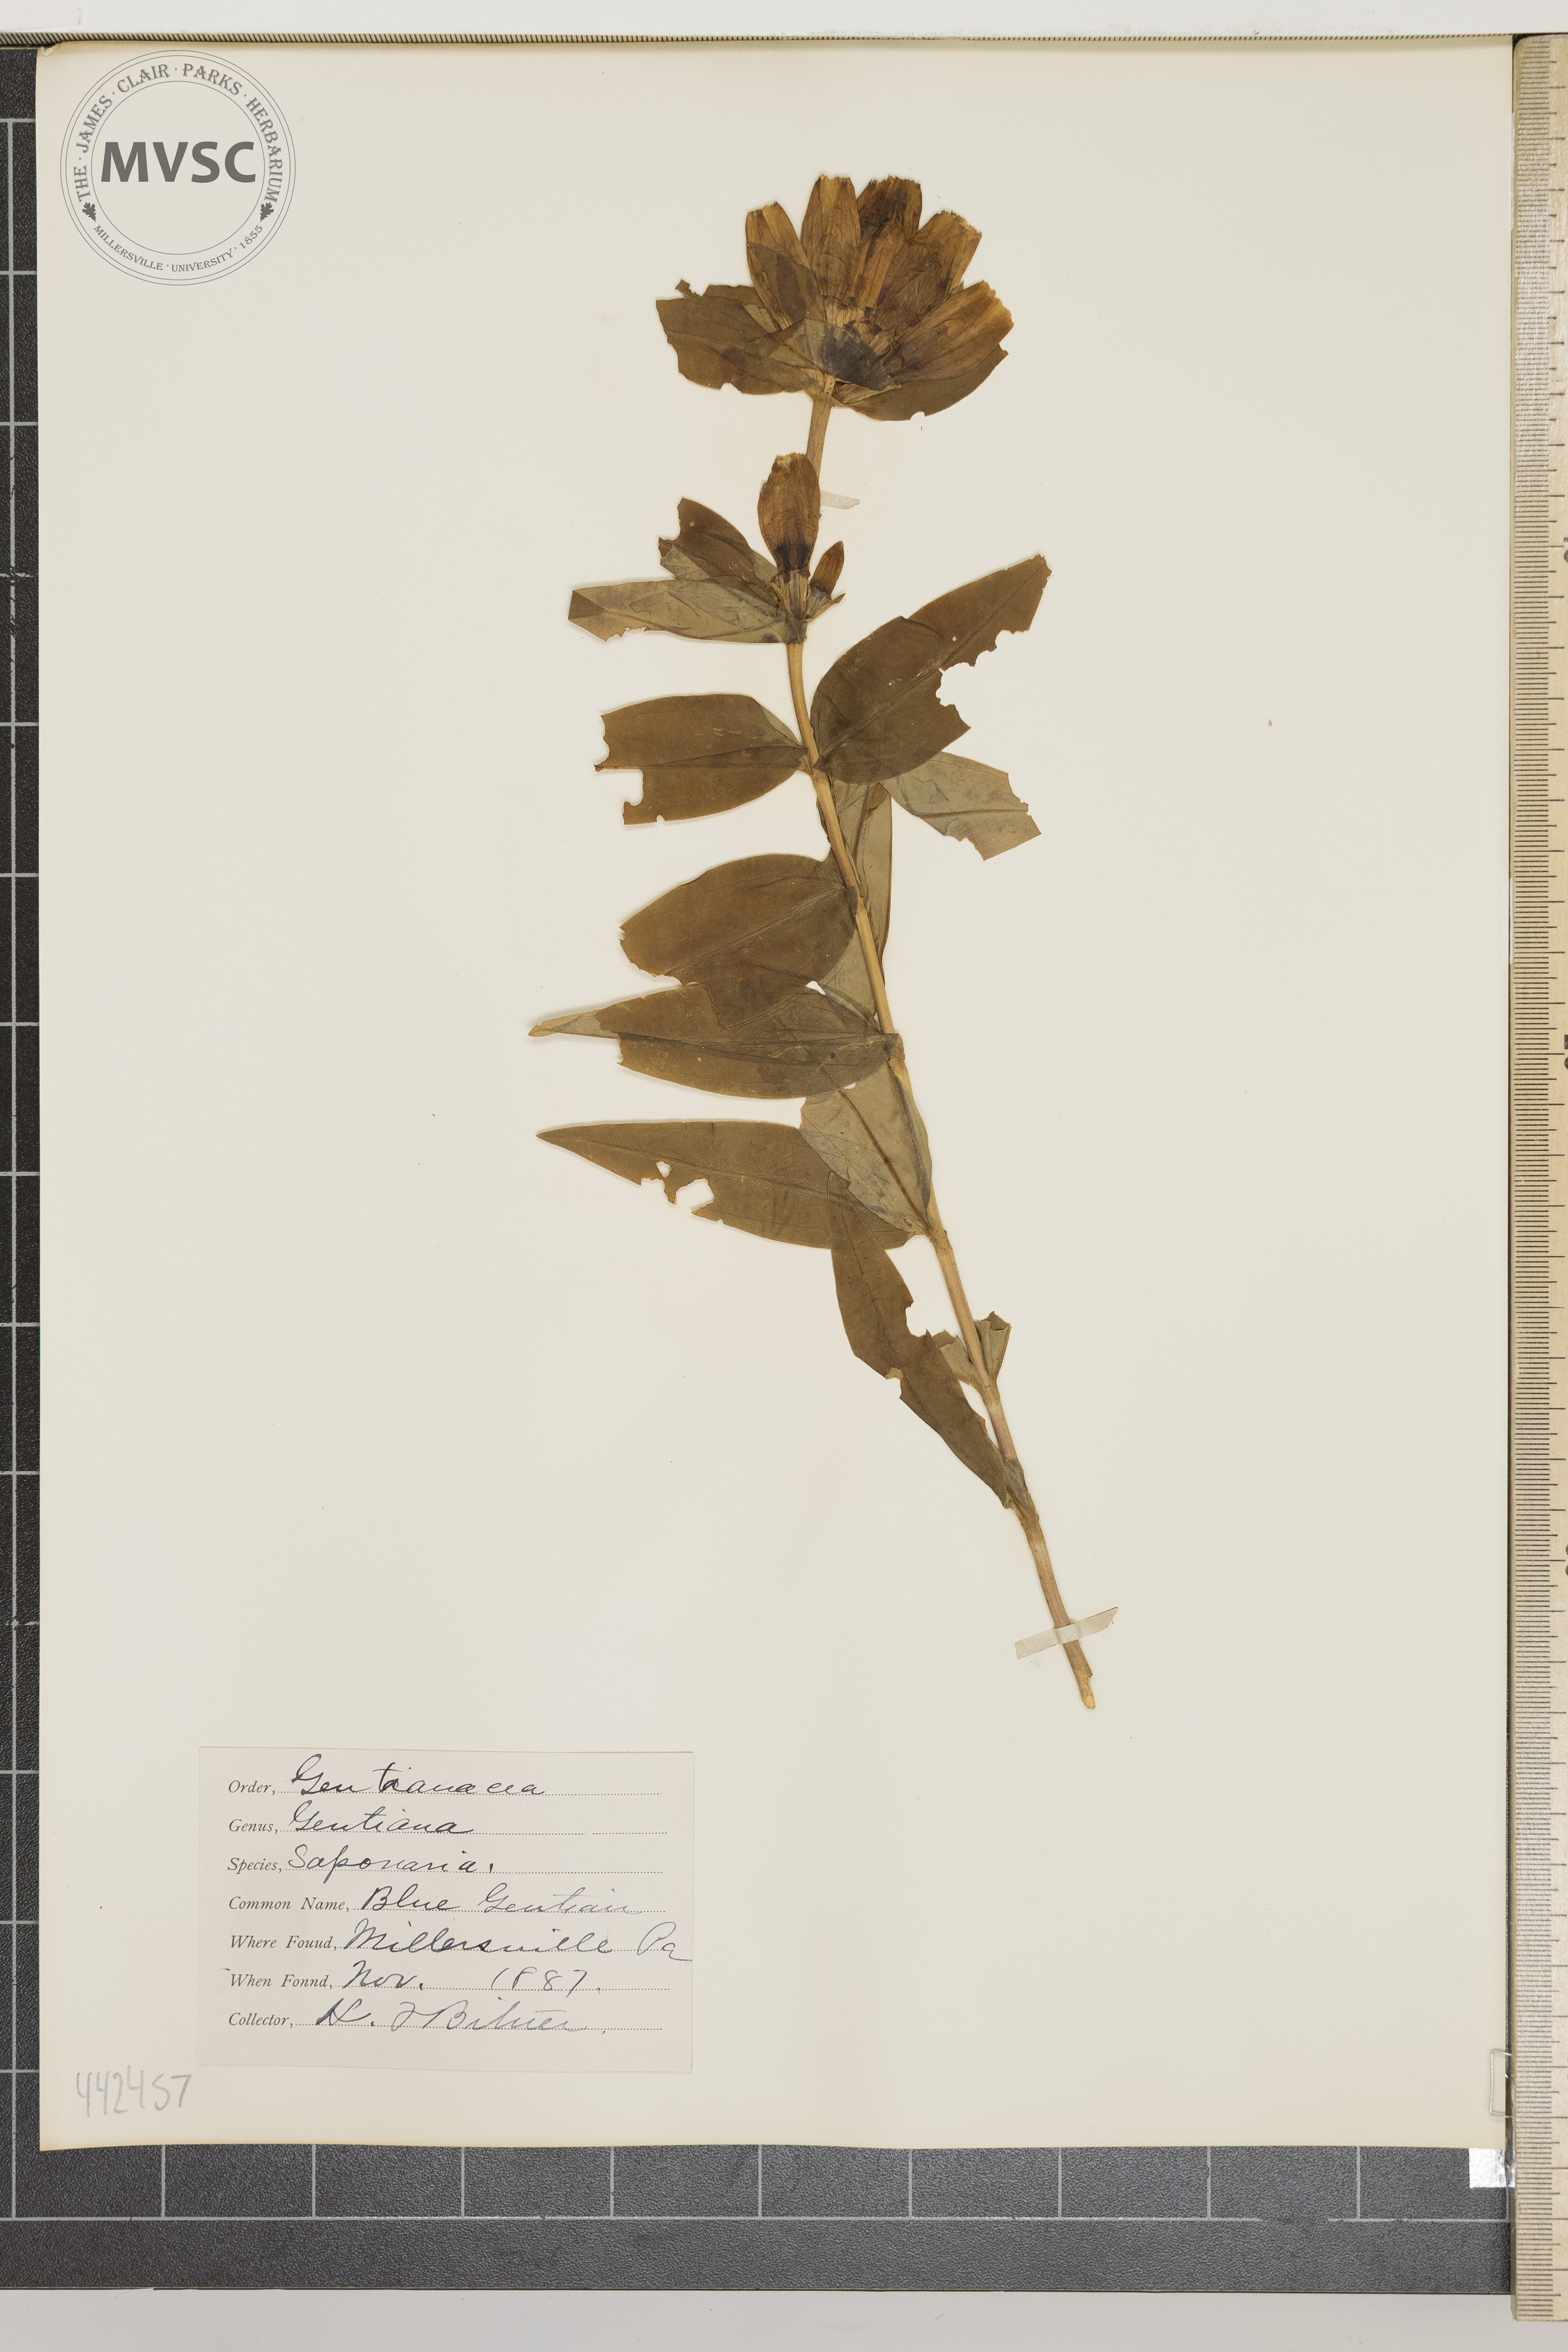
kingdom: Plantae
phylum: Tracheophyta
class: Magnoliopsida
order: Gentianales
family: Gentianaceae
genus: Gentiana
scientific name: Gentiana saponaria
